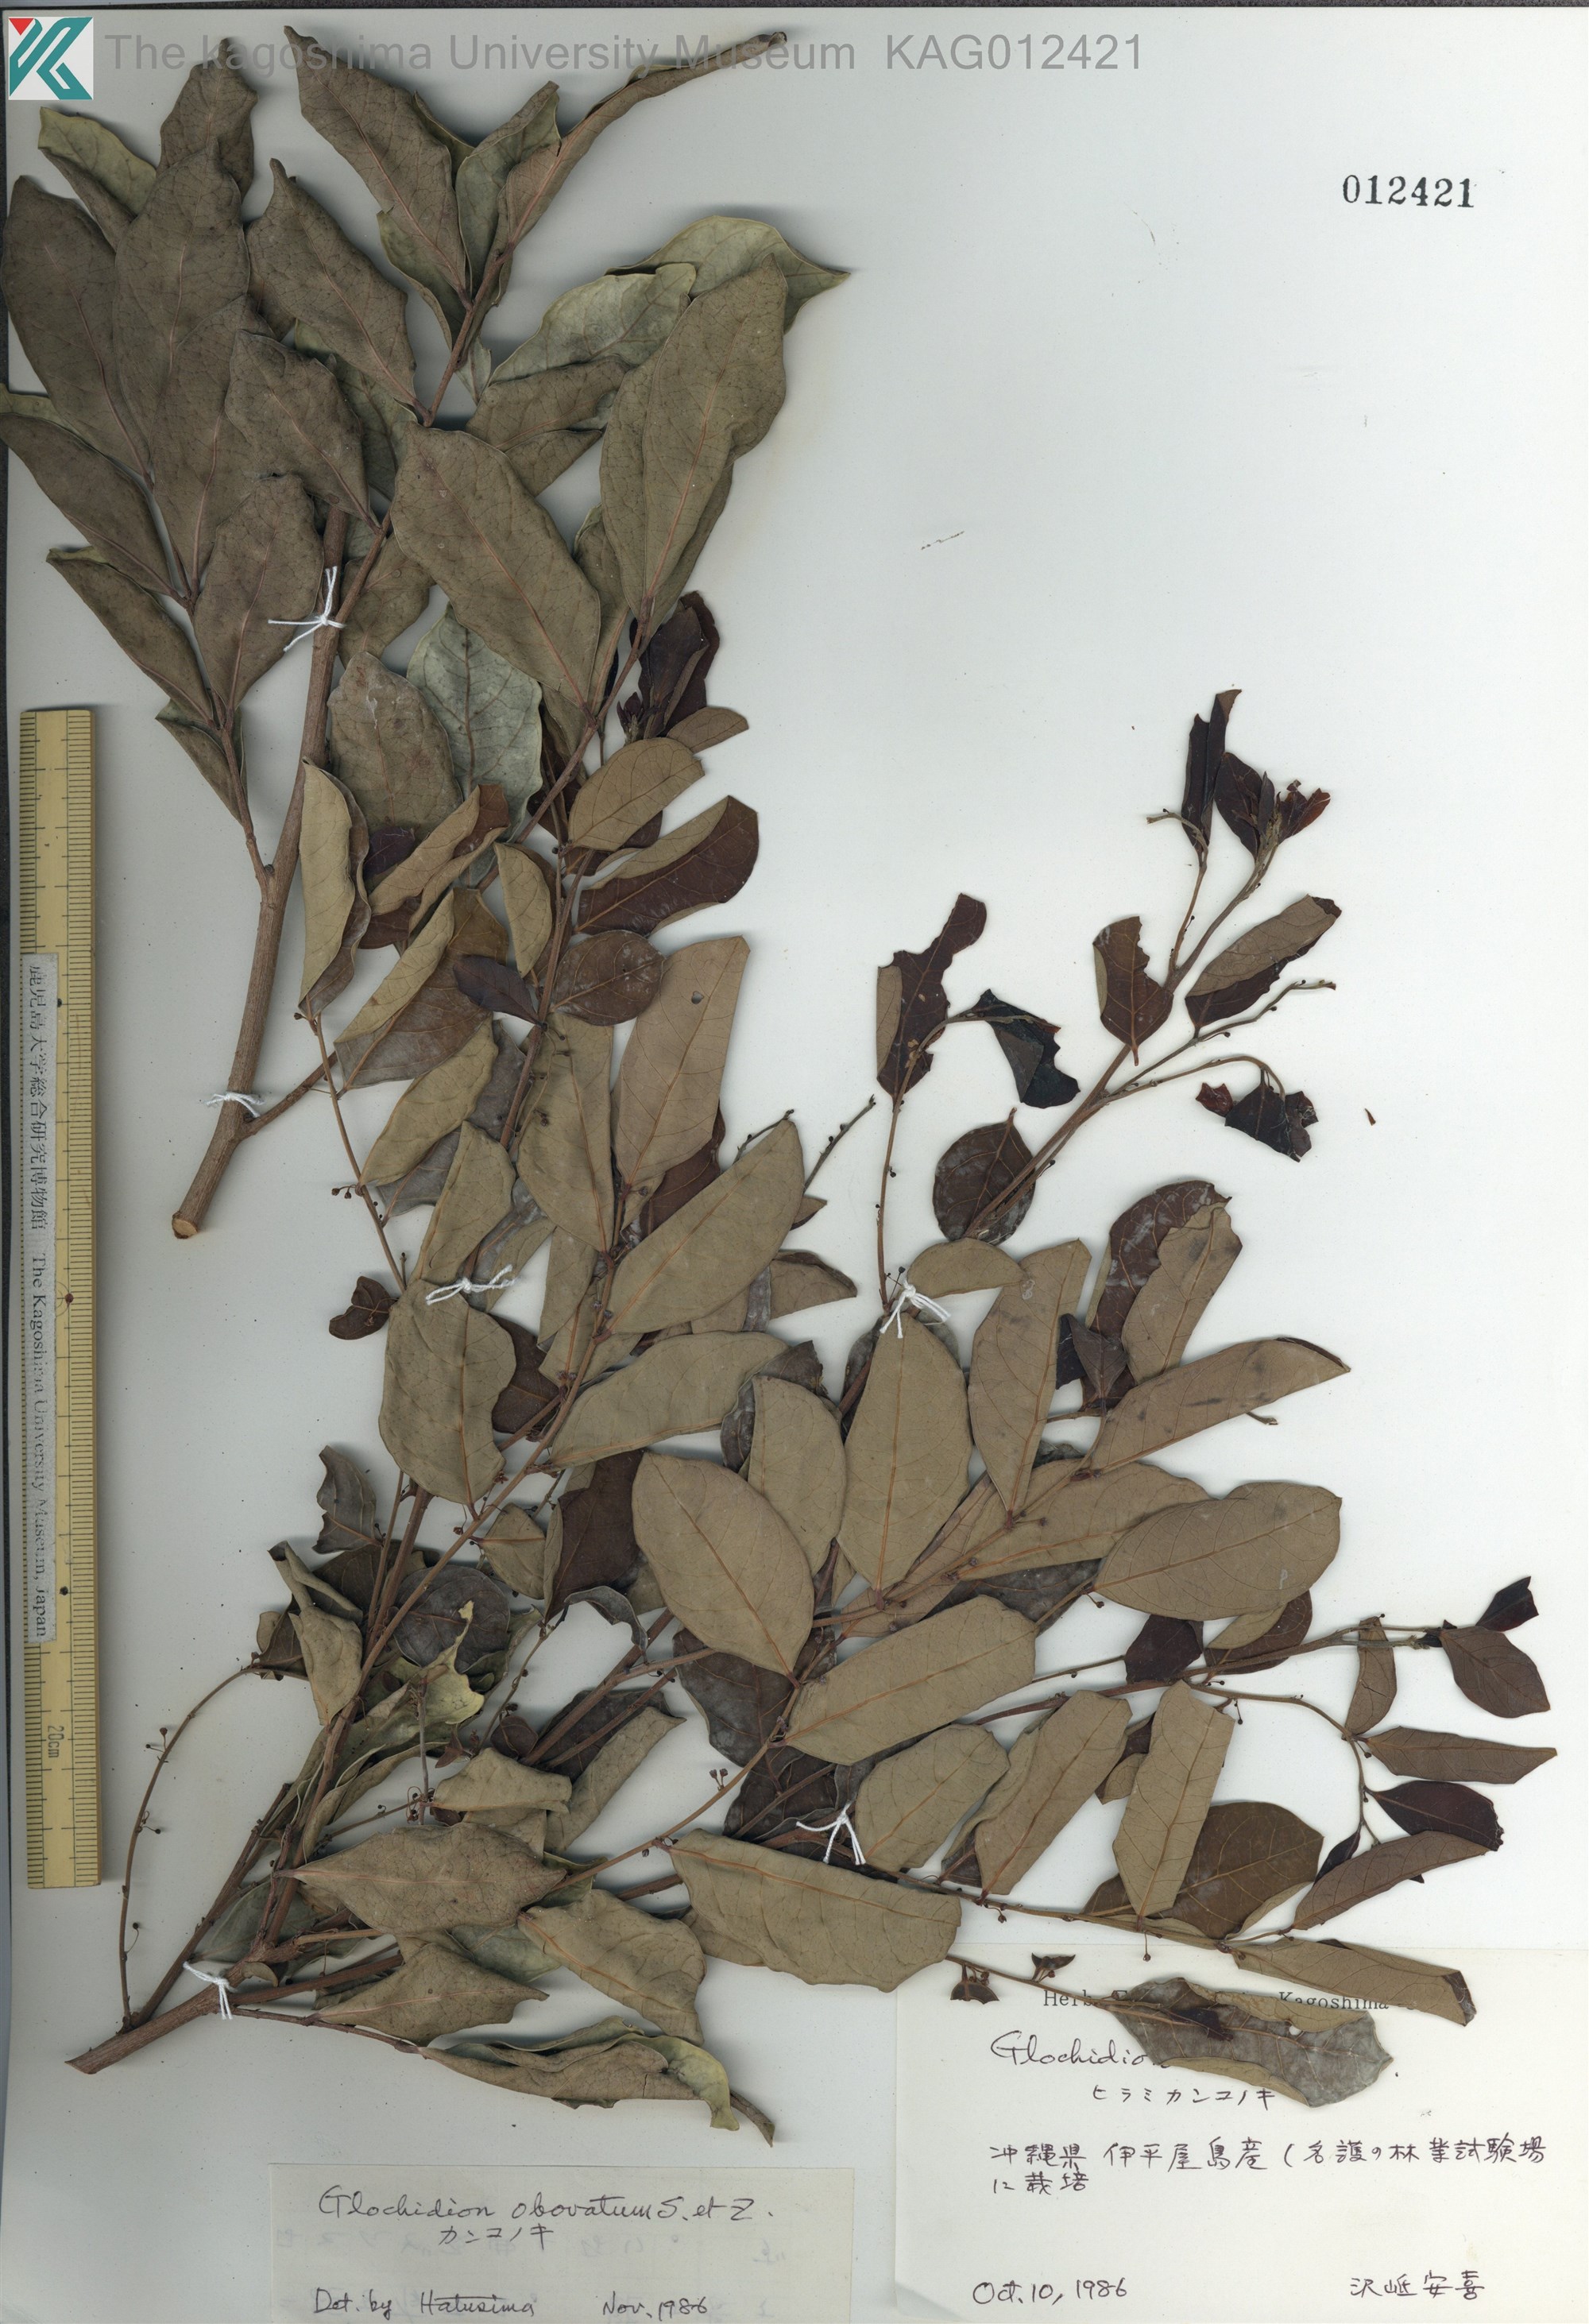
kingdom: Plantae
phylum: Tracheophyta
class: Magnoliopsida
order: Malpighiales
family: Phyllanthaceae
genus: Glochidion
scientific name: Glochidion obovatum
